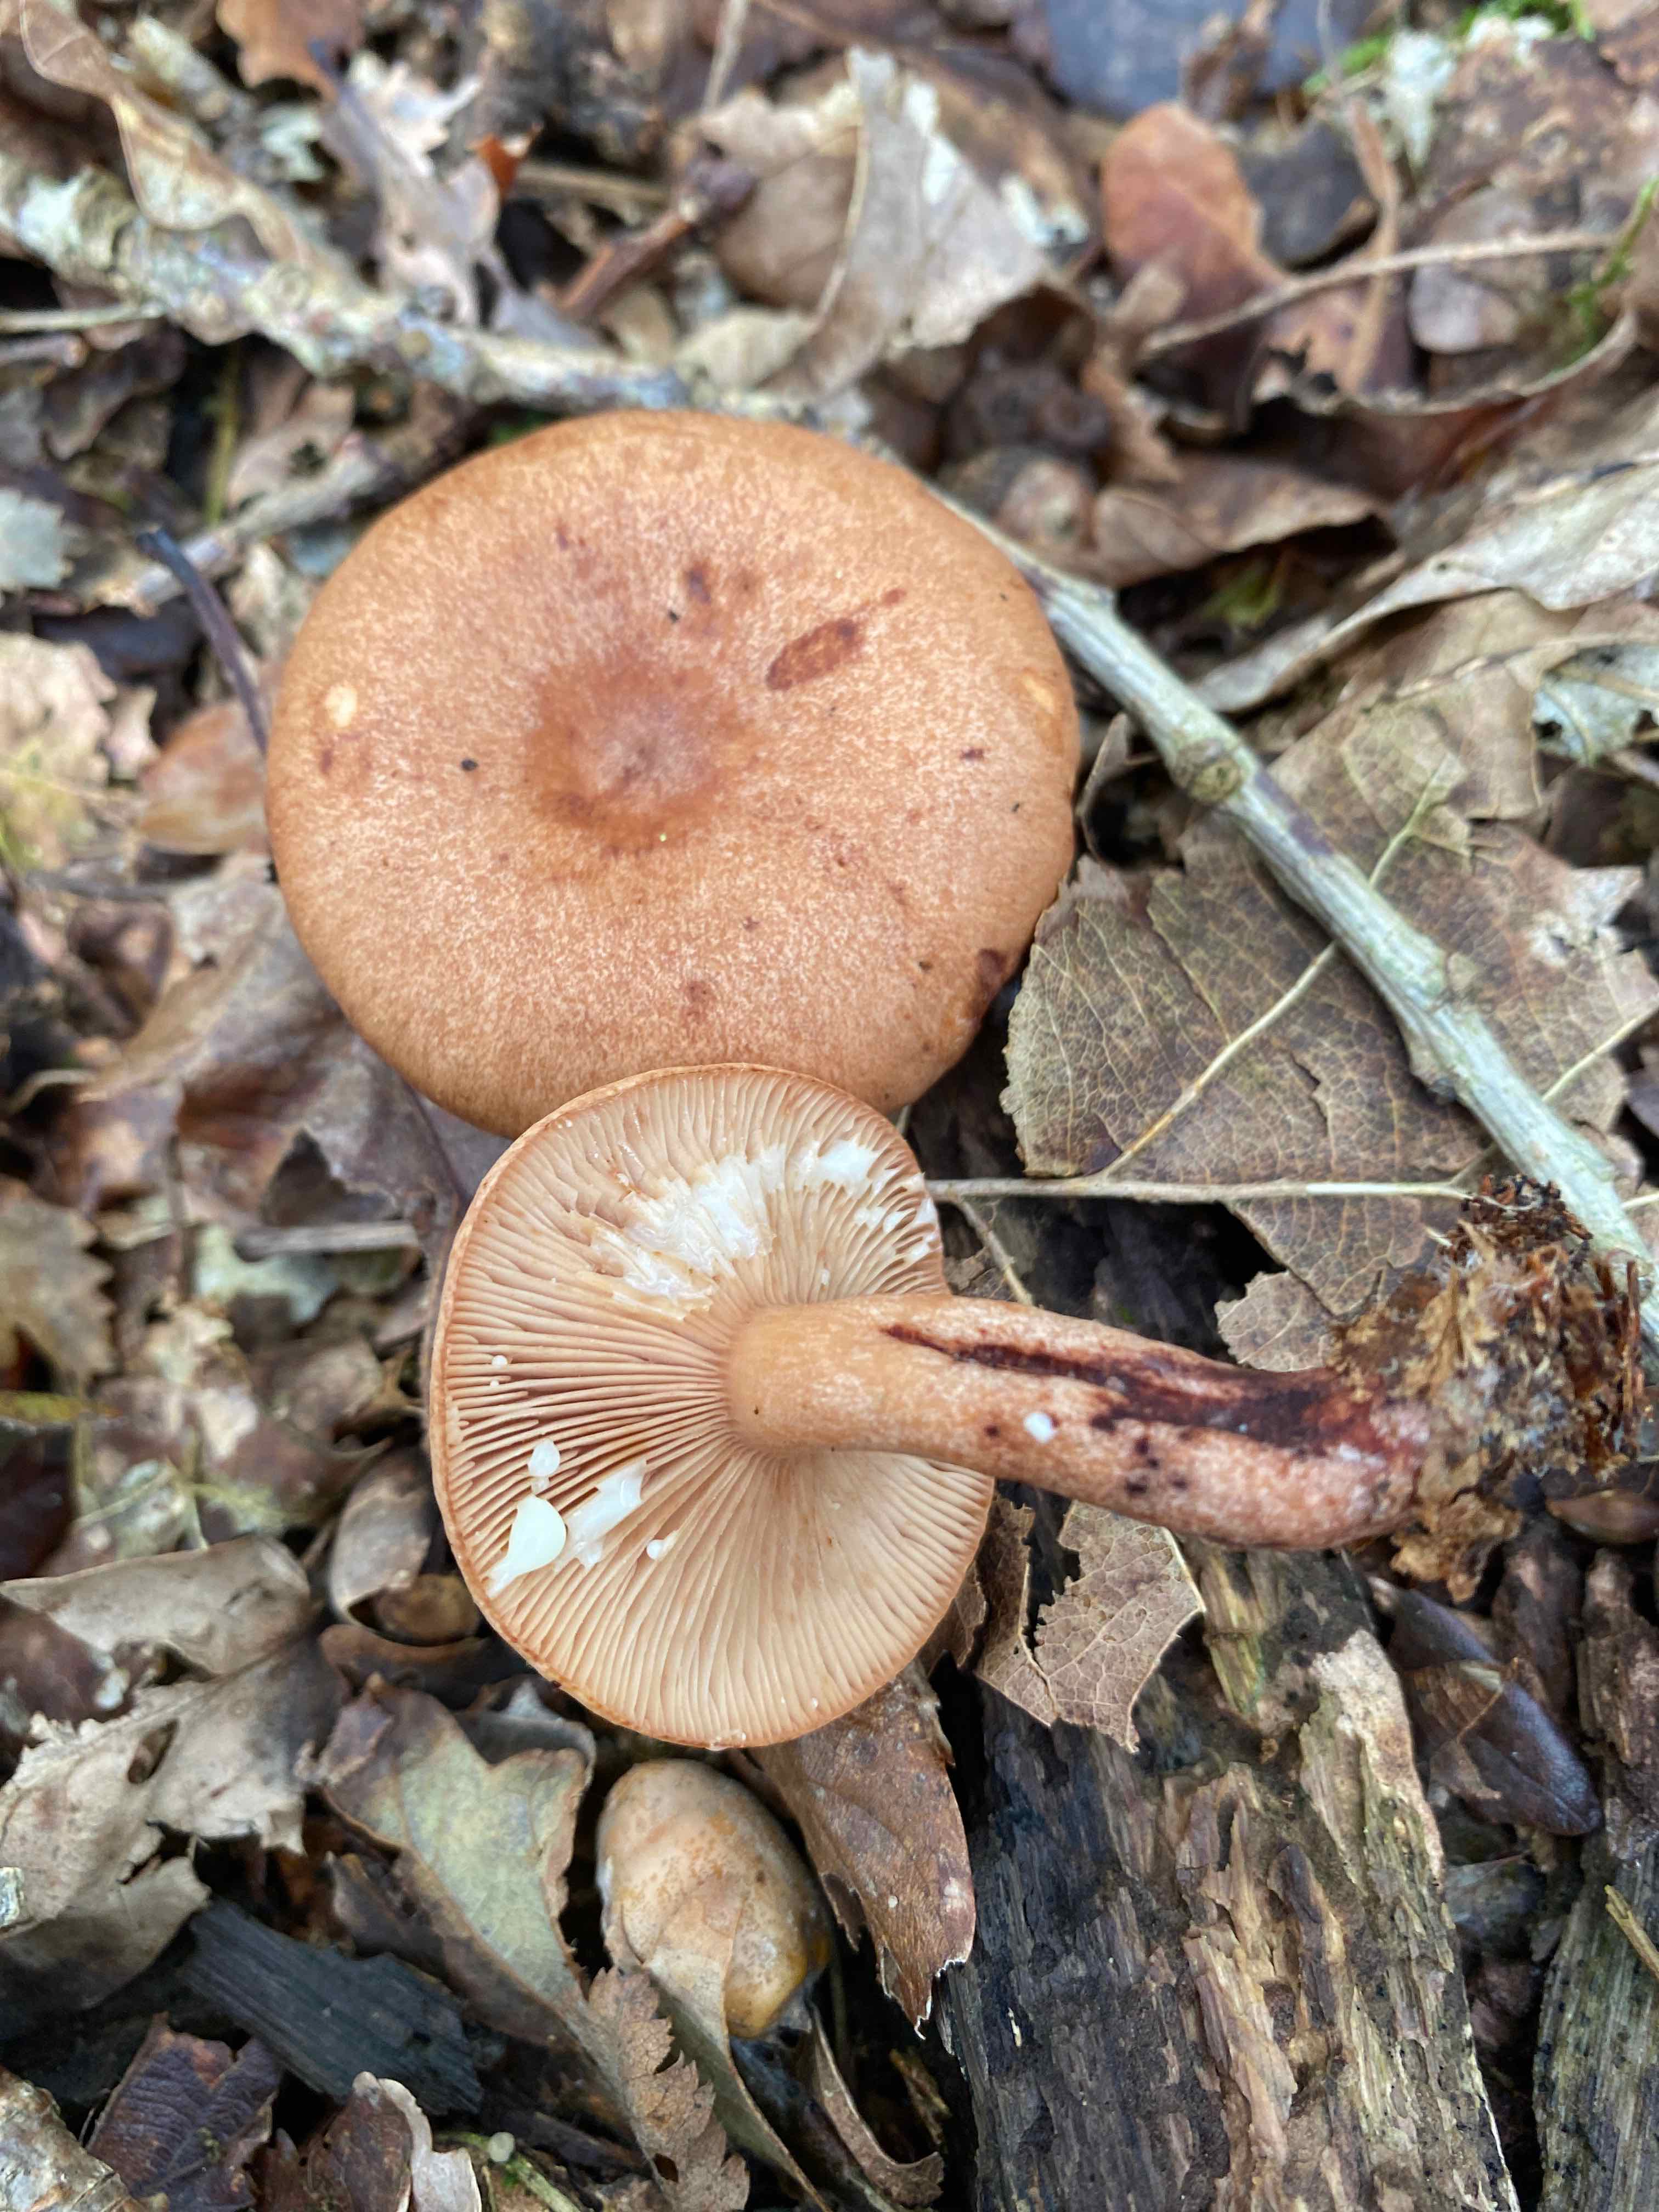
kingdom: Fungi
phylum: Basidiomycota
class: Agaricomycetes
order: Russulales
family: Russulaceae
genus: Lactarius
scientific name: Lactarius quietus
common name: ege-mælkehat
